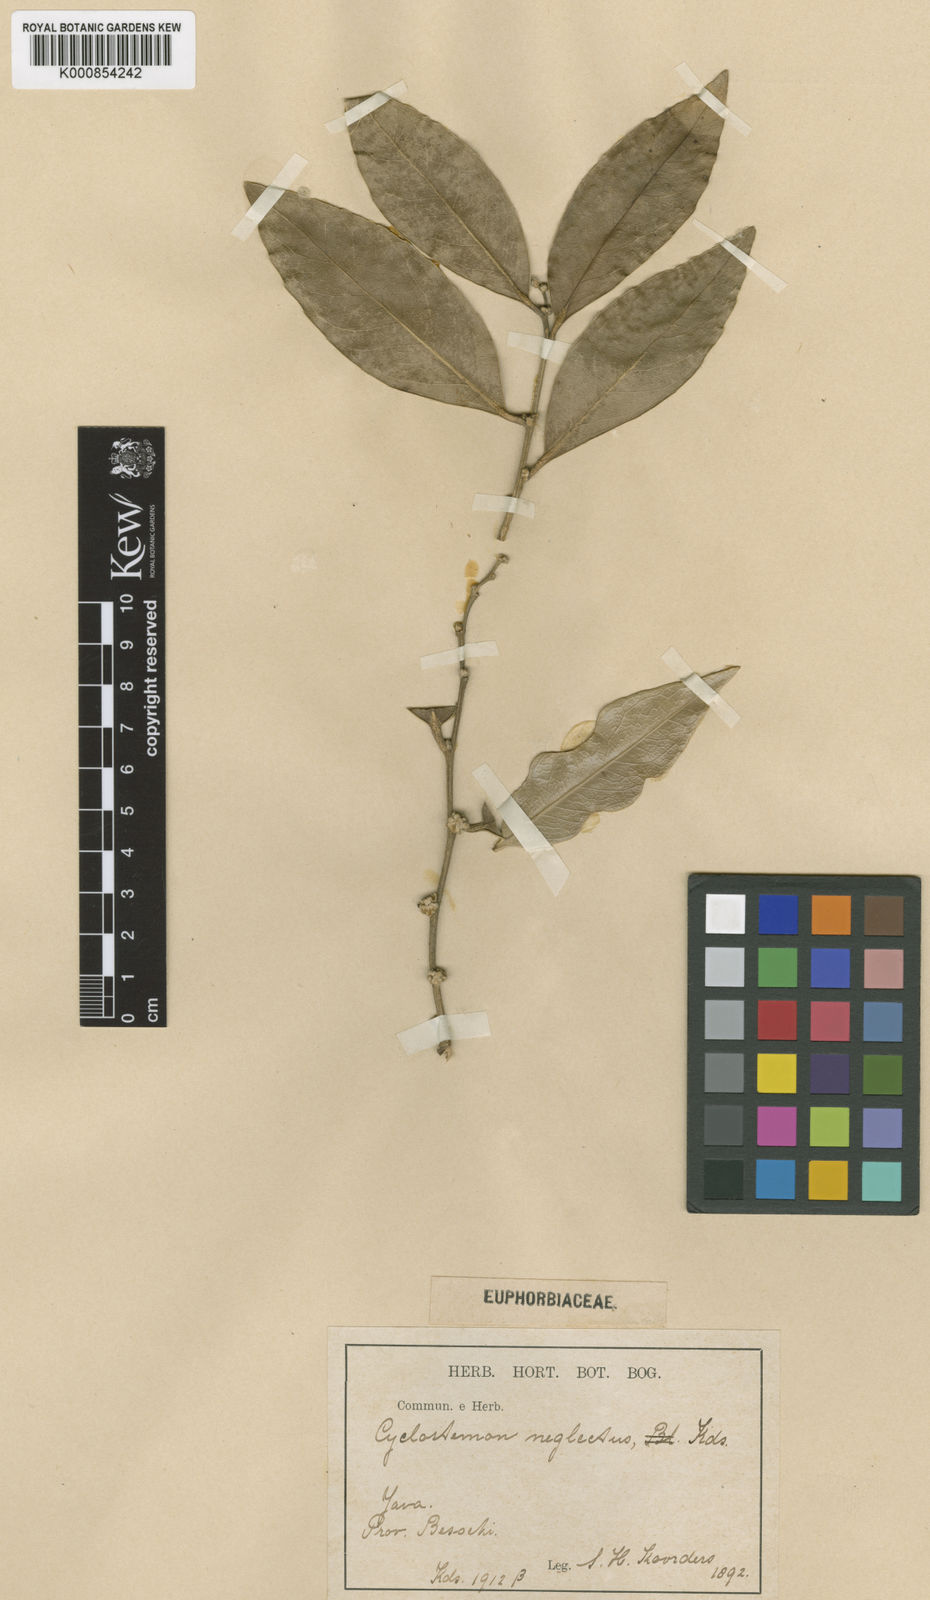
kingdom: Plantae
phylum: Tracheophyta
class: Magnoliopsida
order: Malpighiales
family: Putranjivaceae
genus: Drypetes
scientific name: Drypetes neglecta
